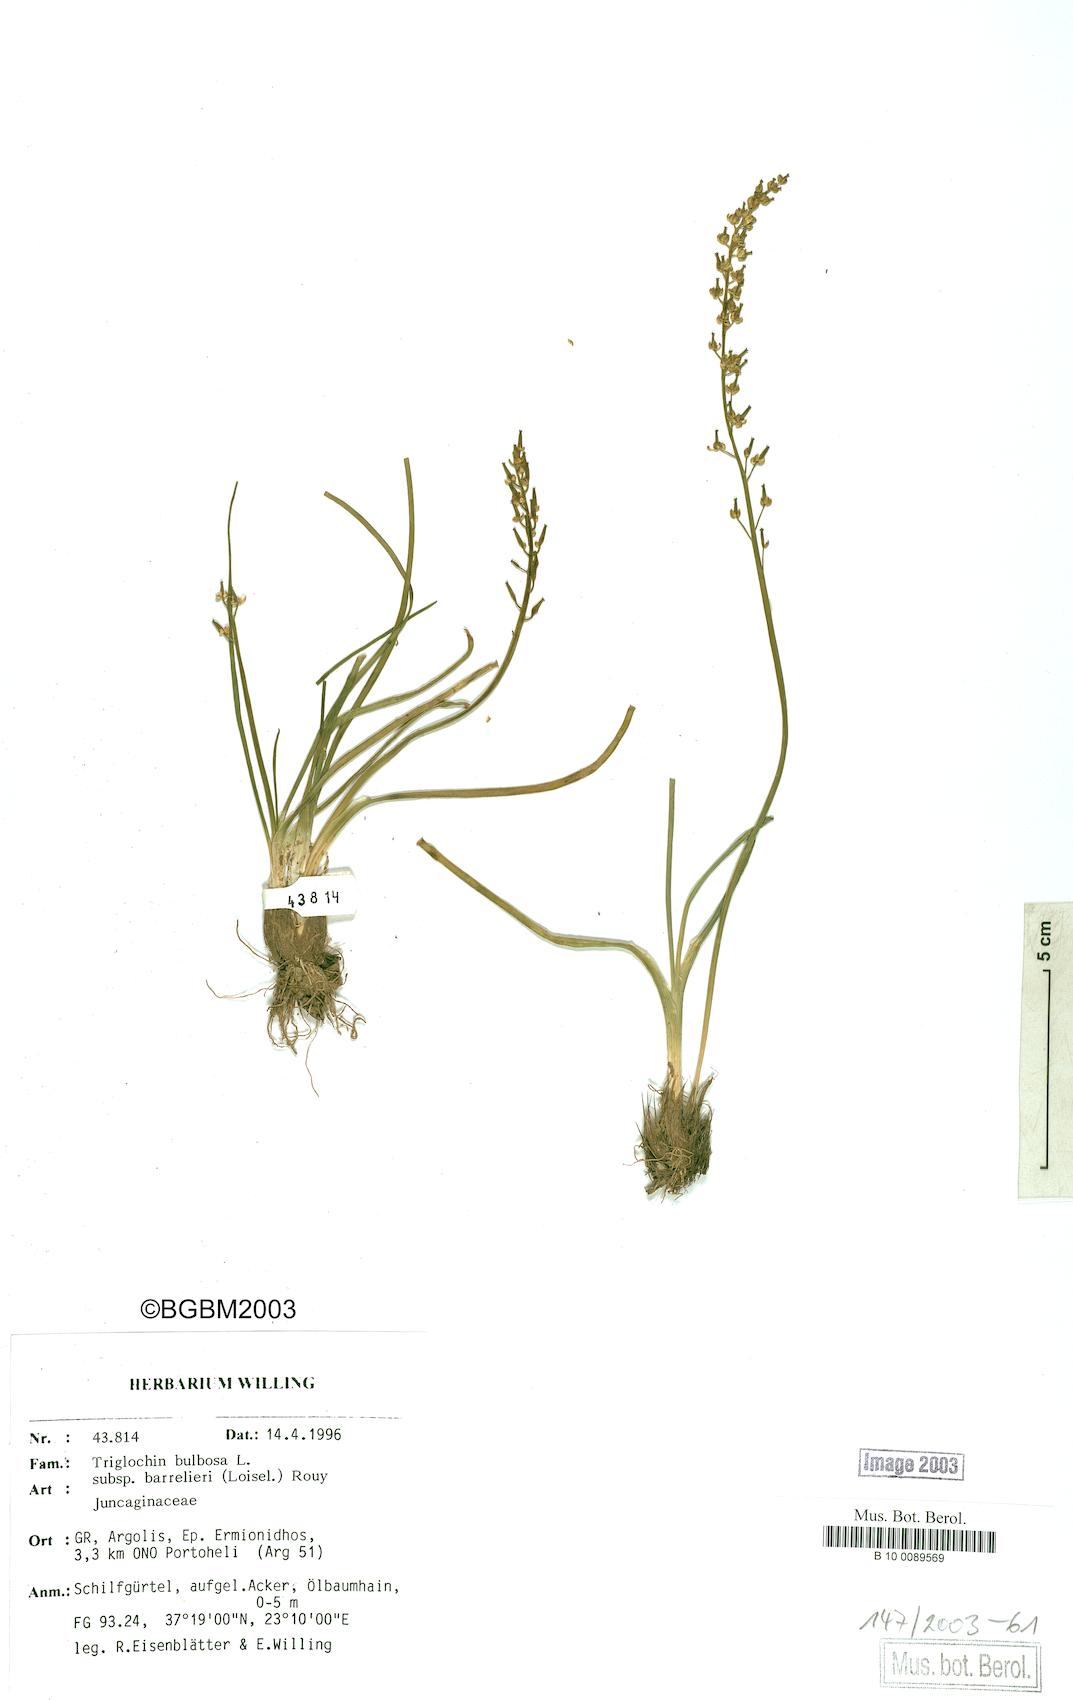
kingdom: Plantae
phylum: Tracheophyta
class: Liliopsida
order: Alismatales
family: Juncaginaceae
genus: Triglochin
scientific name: Triglochin barrelieri
